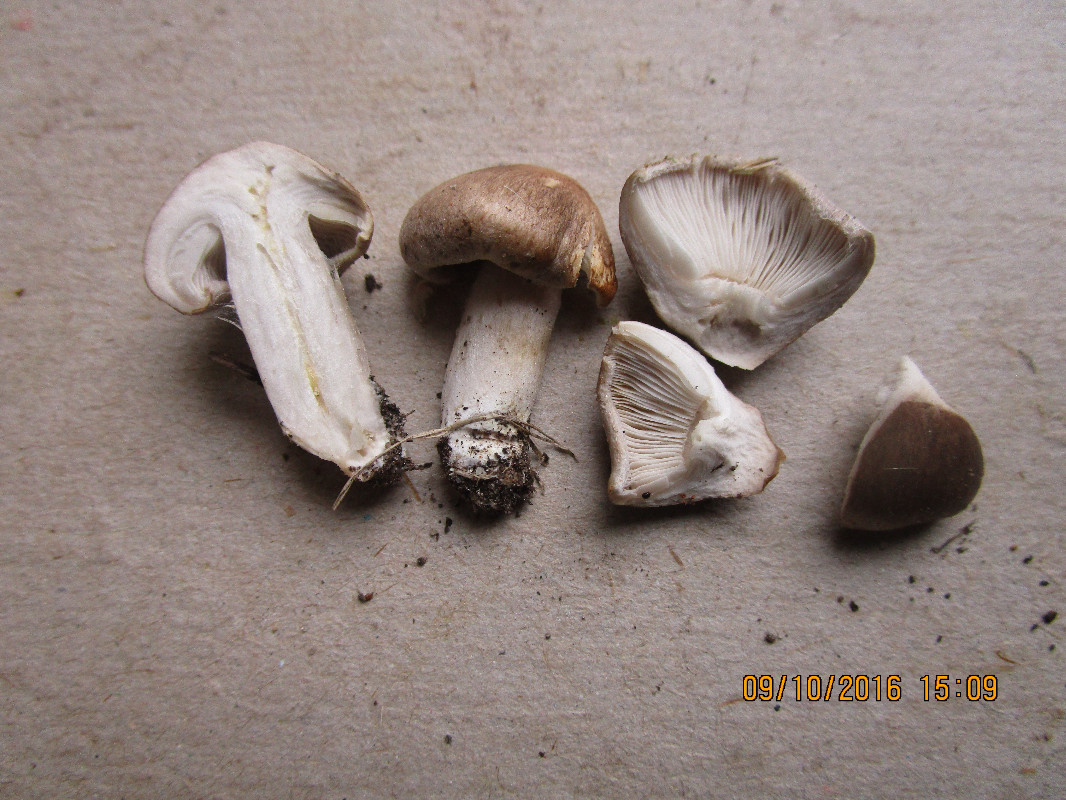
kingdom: Fungi
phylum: Basidiomycota
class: Agaricomycetes
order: Agaricales
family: Tricholomataceae
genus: Tricholoma
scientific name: Tricholoma scalpturatum
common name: gulplettet ridderhat
